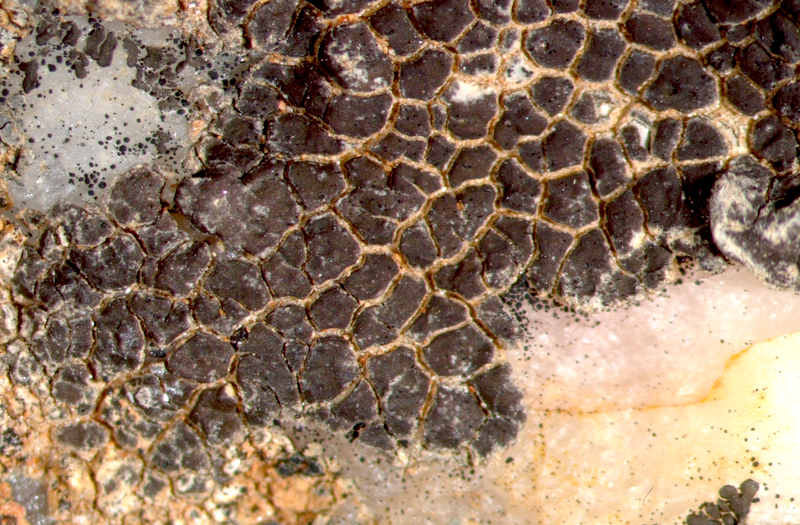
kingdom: Fungi
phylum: Ascomycota
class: Lecanoromycetes
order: Ostropales
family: Graphidaceae
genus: Diploschistes
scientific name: Diploschistes aeneus
